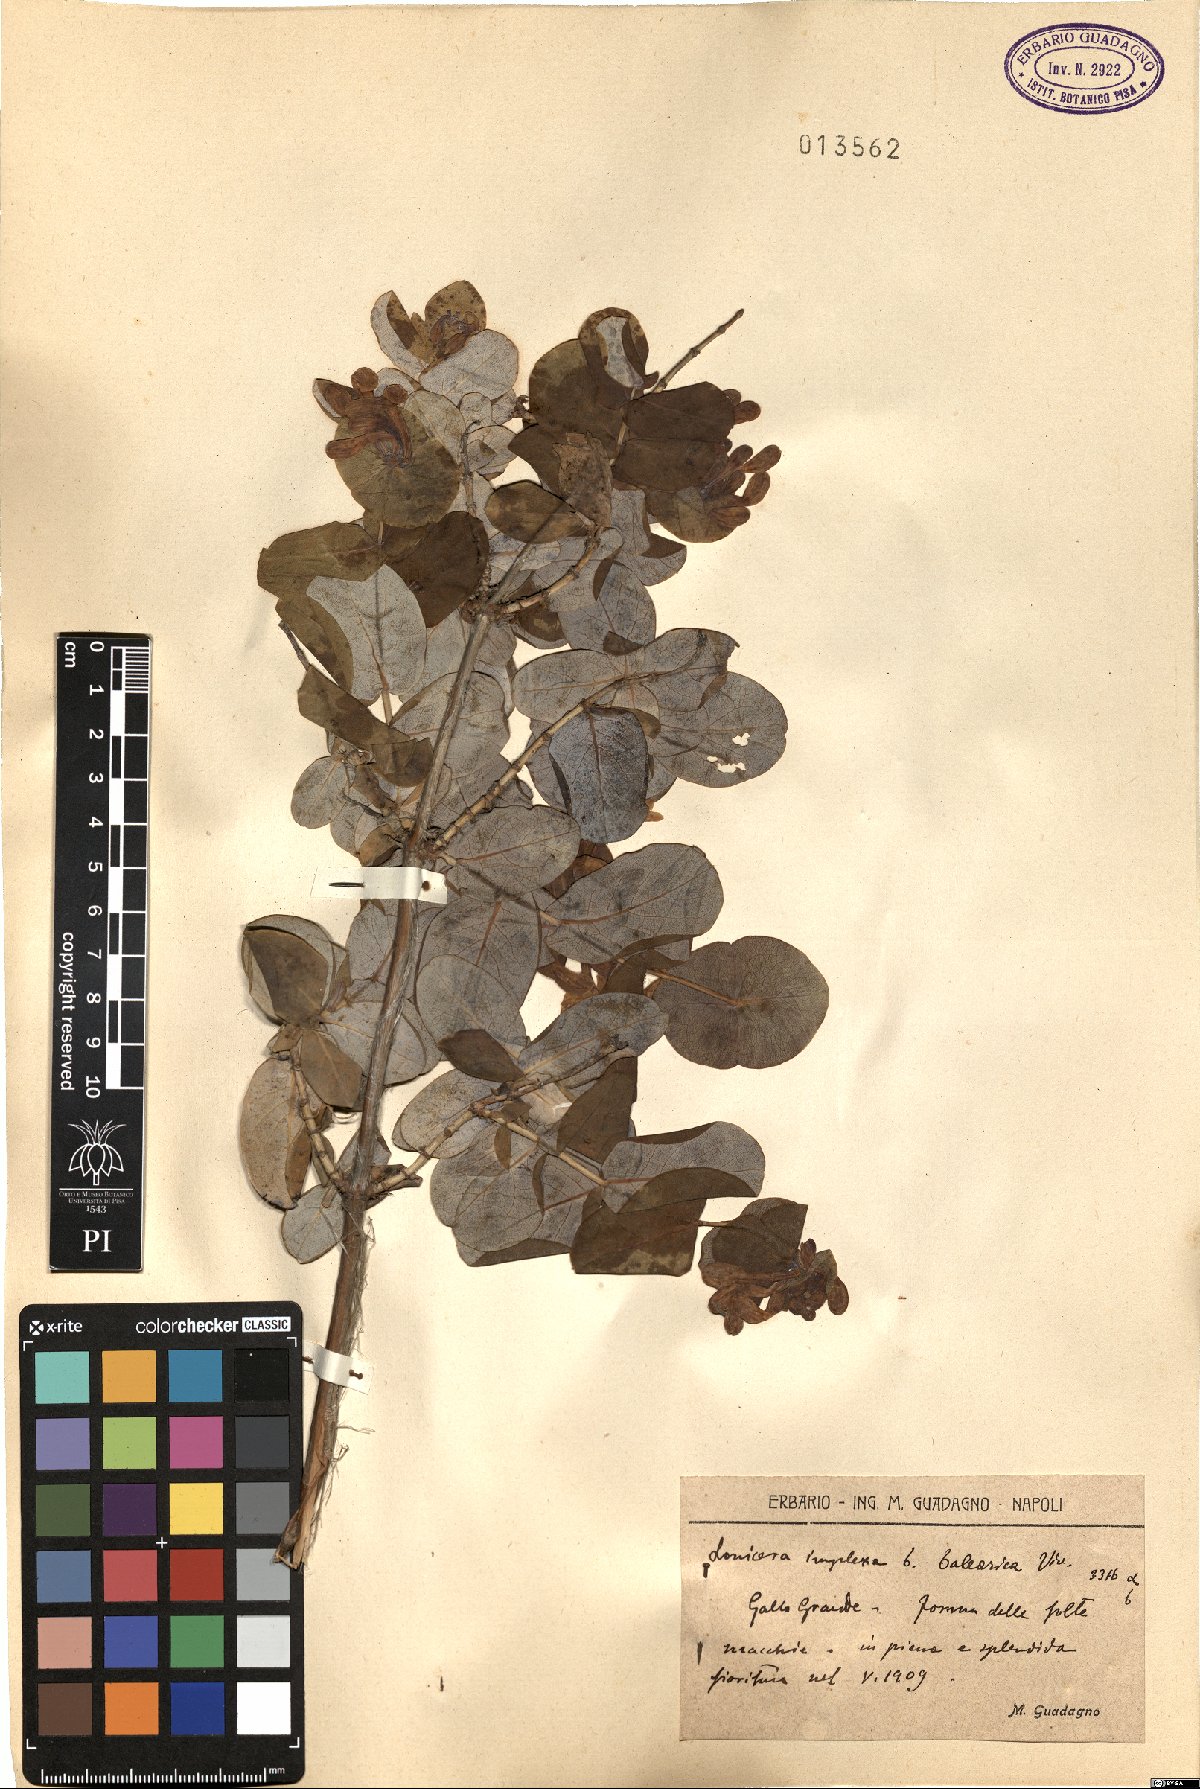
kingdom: Plantae
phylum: Tracheophyta
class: Magnoliopsida
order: Dipsacales
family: Caprifoliaceae
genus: Lonicera
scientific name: Lonicera implexa
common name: Minorca honeysuckle
